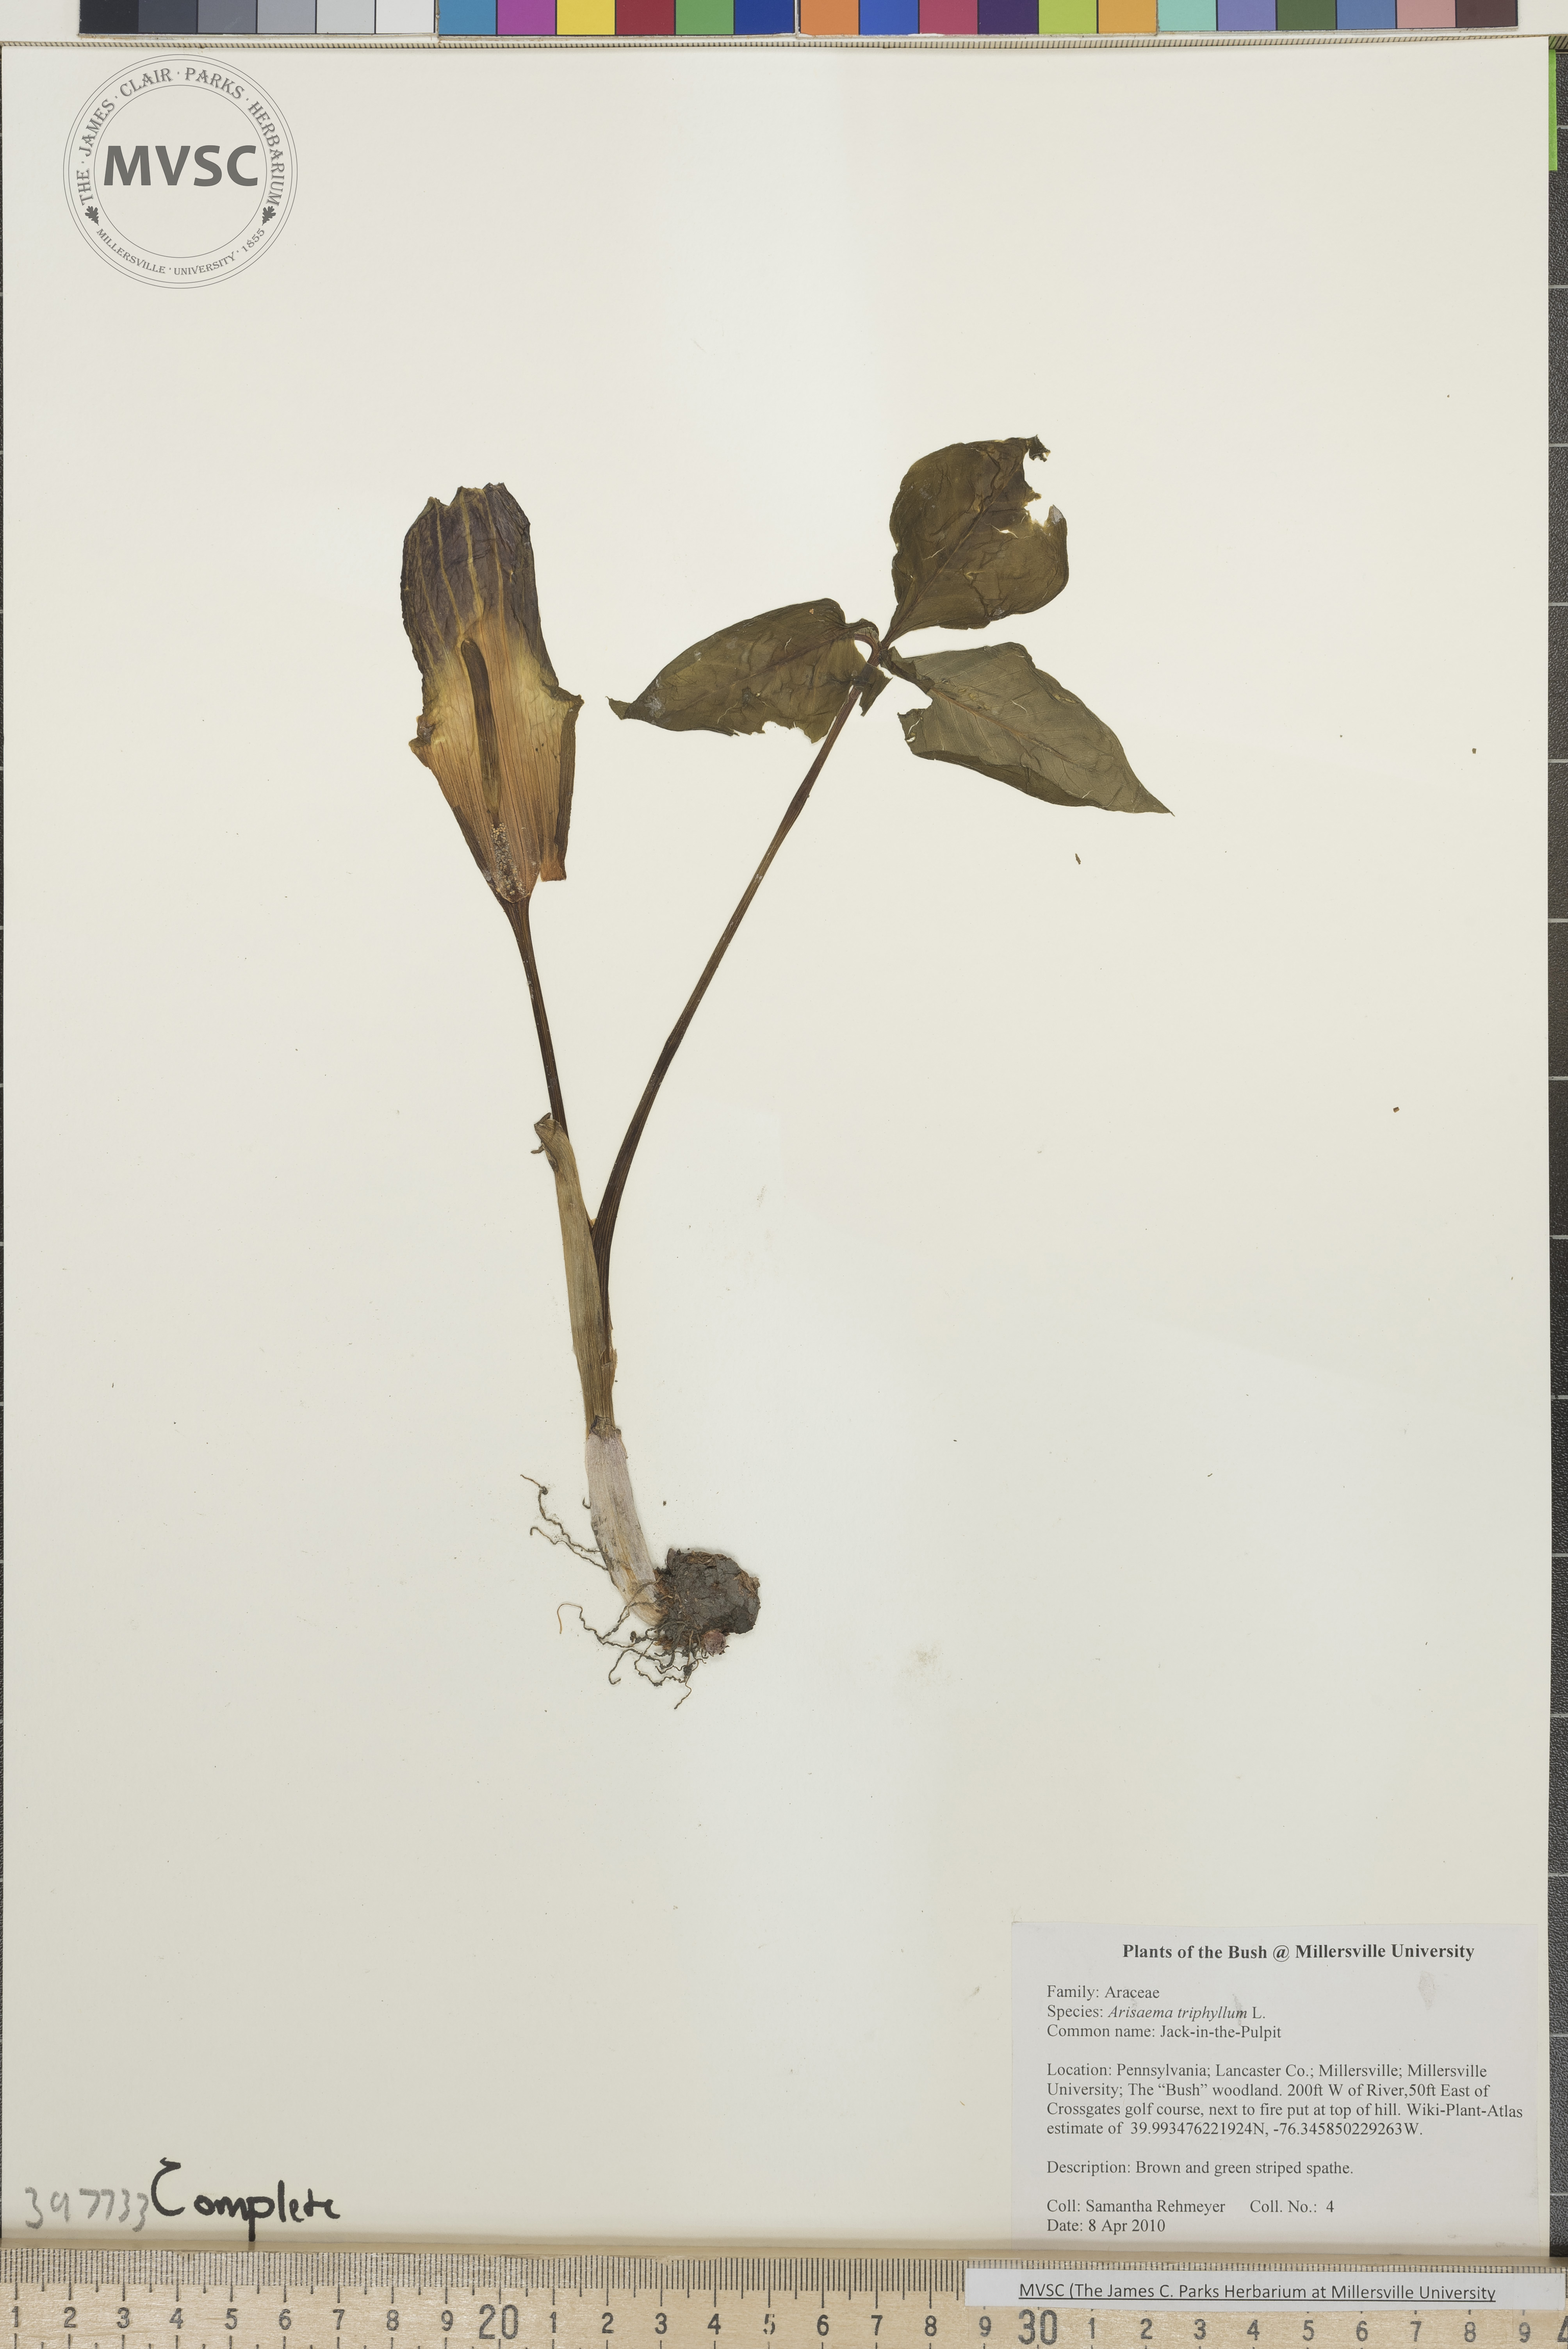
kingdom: Plantae
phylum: Tracheophyta
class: Liliopsida
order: Alismatales
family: Araceae
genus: Arisaema
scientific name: Arisaema triphyllum
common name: Green-dragon
